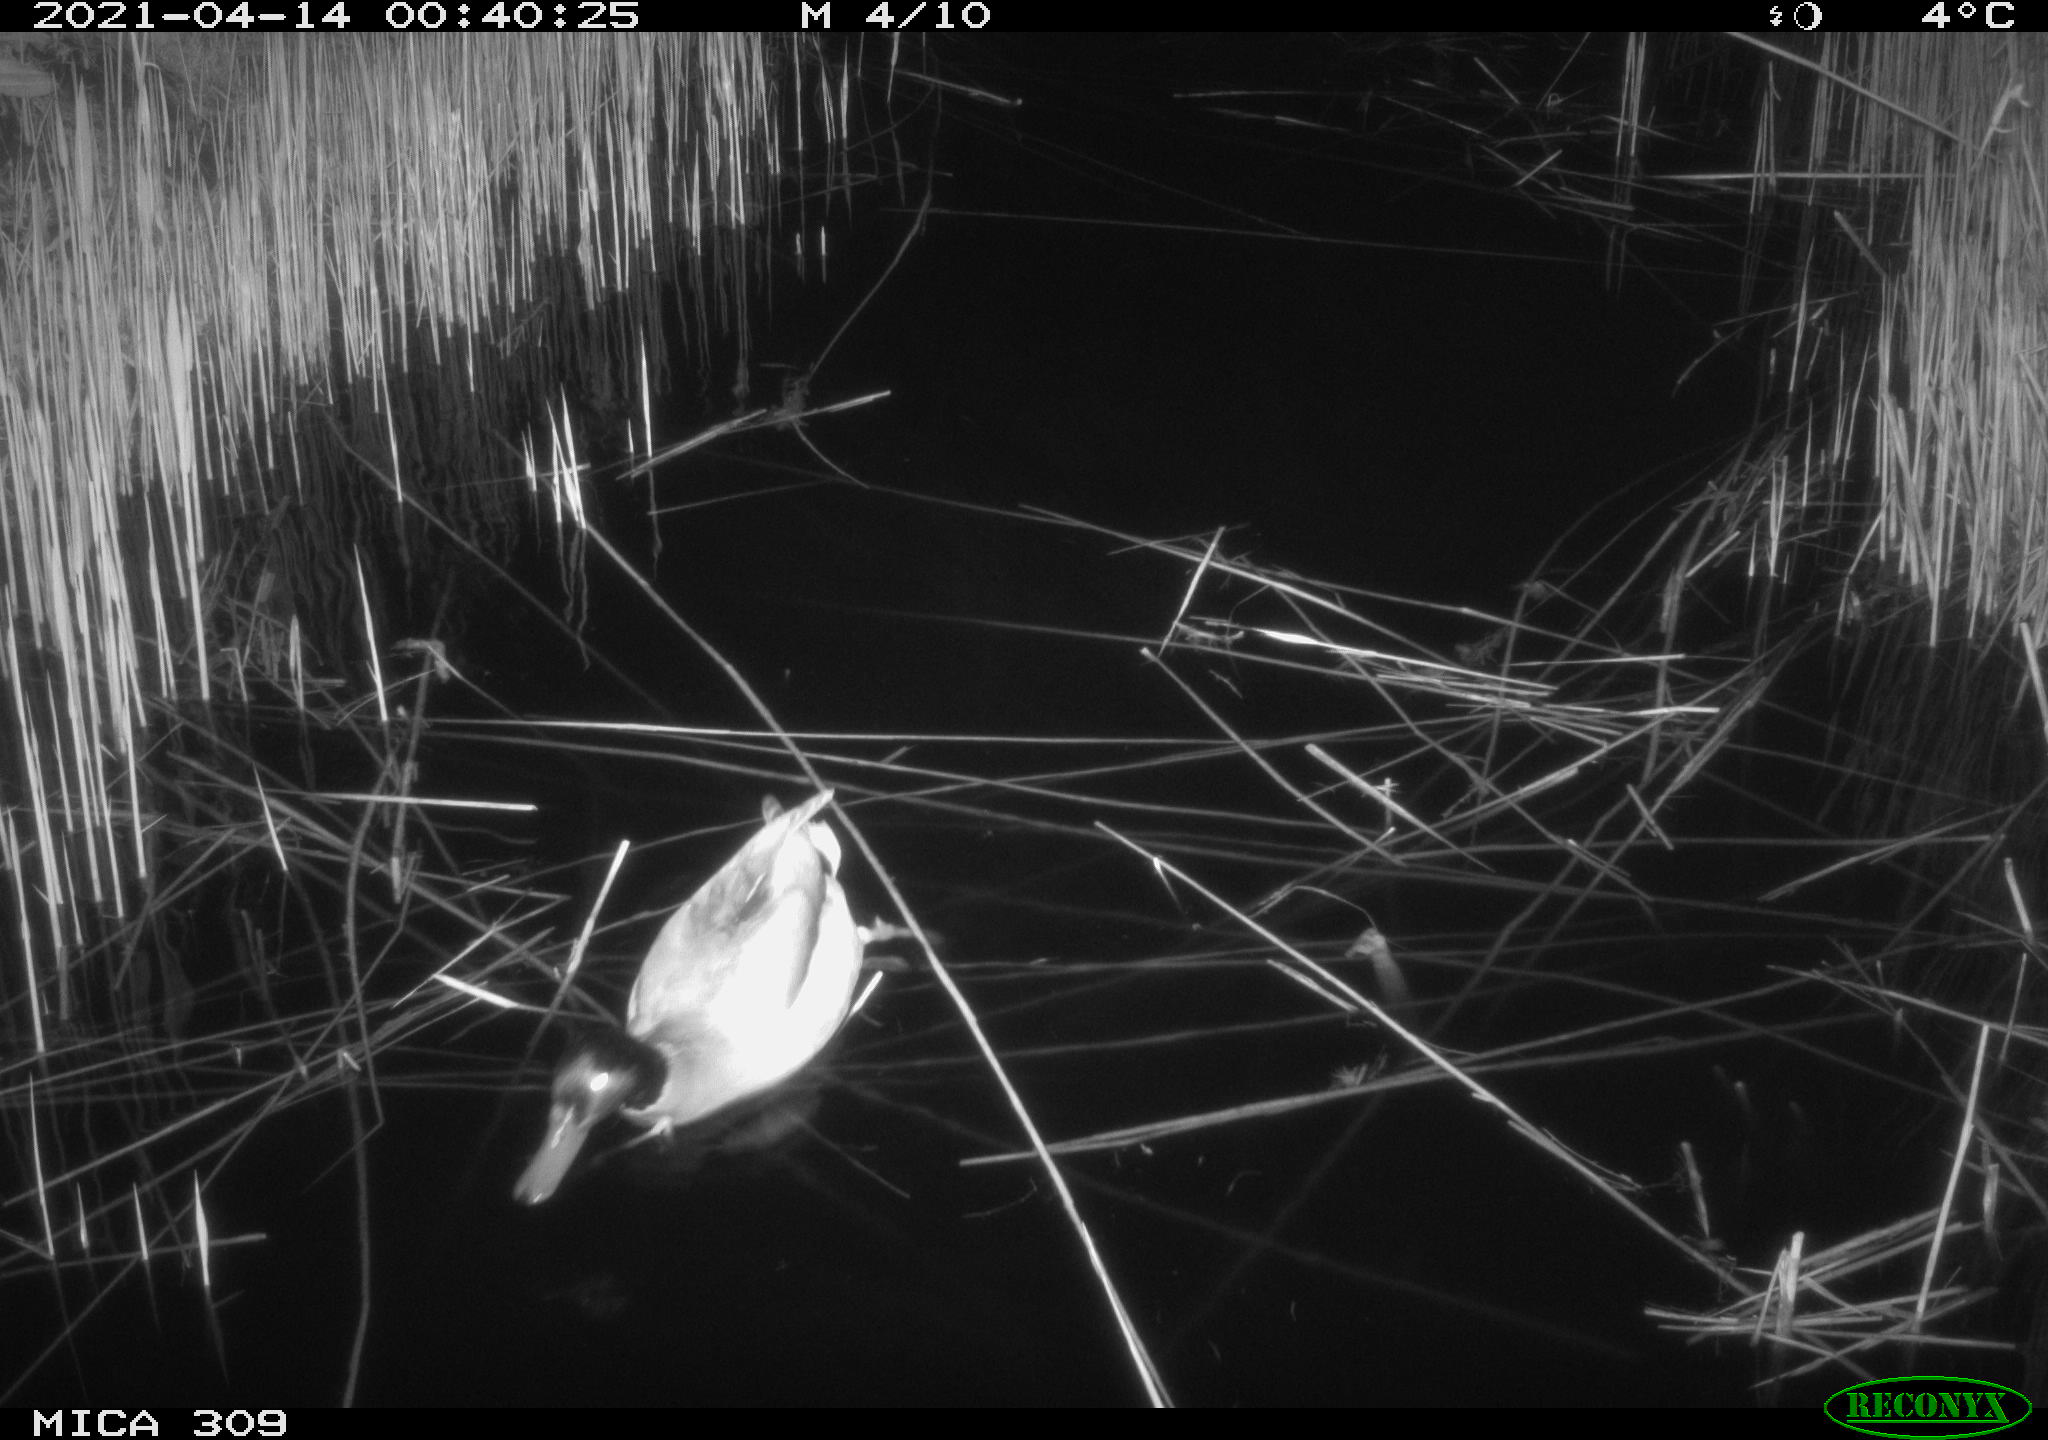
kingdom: Animalia
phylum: Chordata
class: Aves
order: Anseriformes
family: Anatidae
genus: Anas
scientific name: Anas platyrhynchos
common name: Mallard
